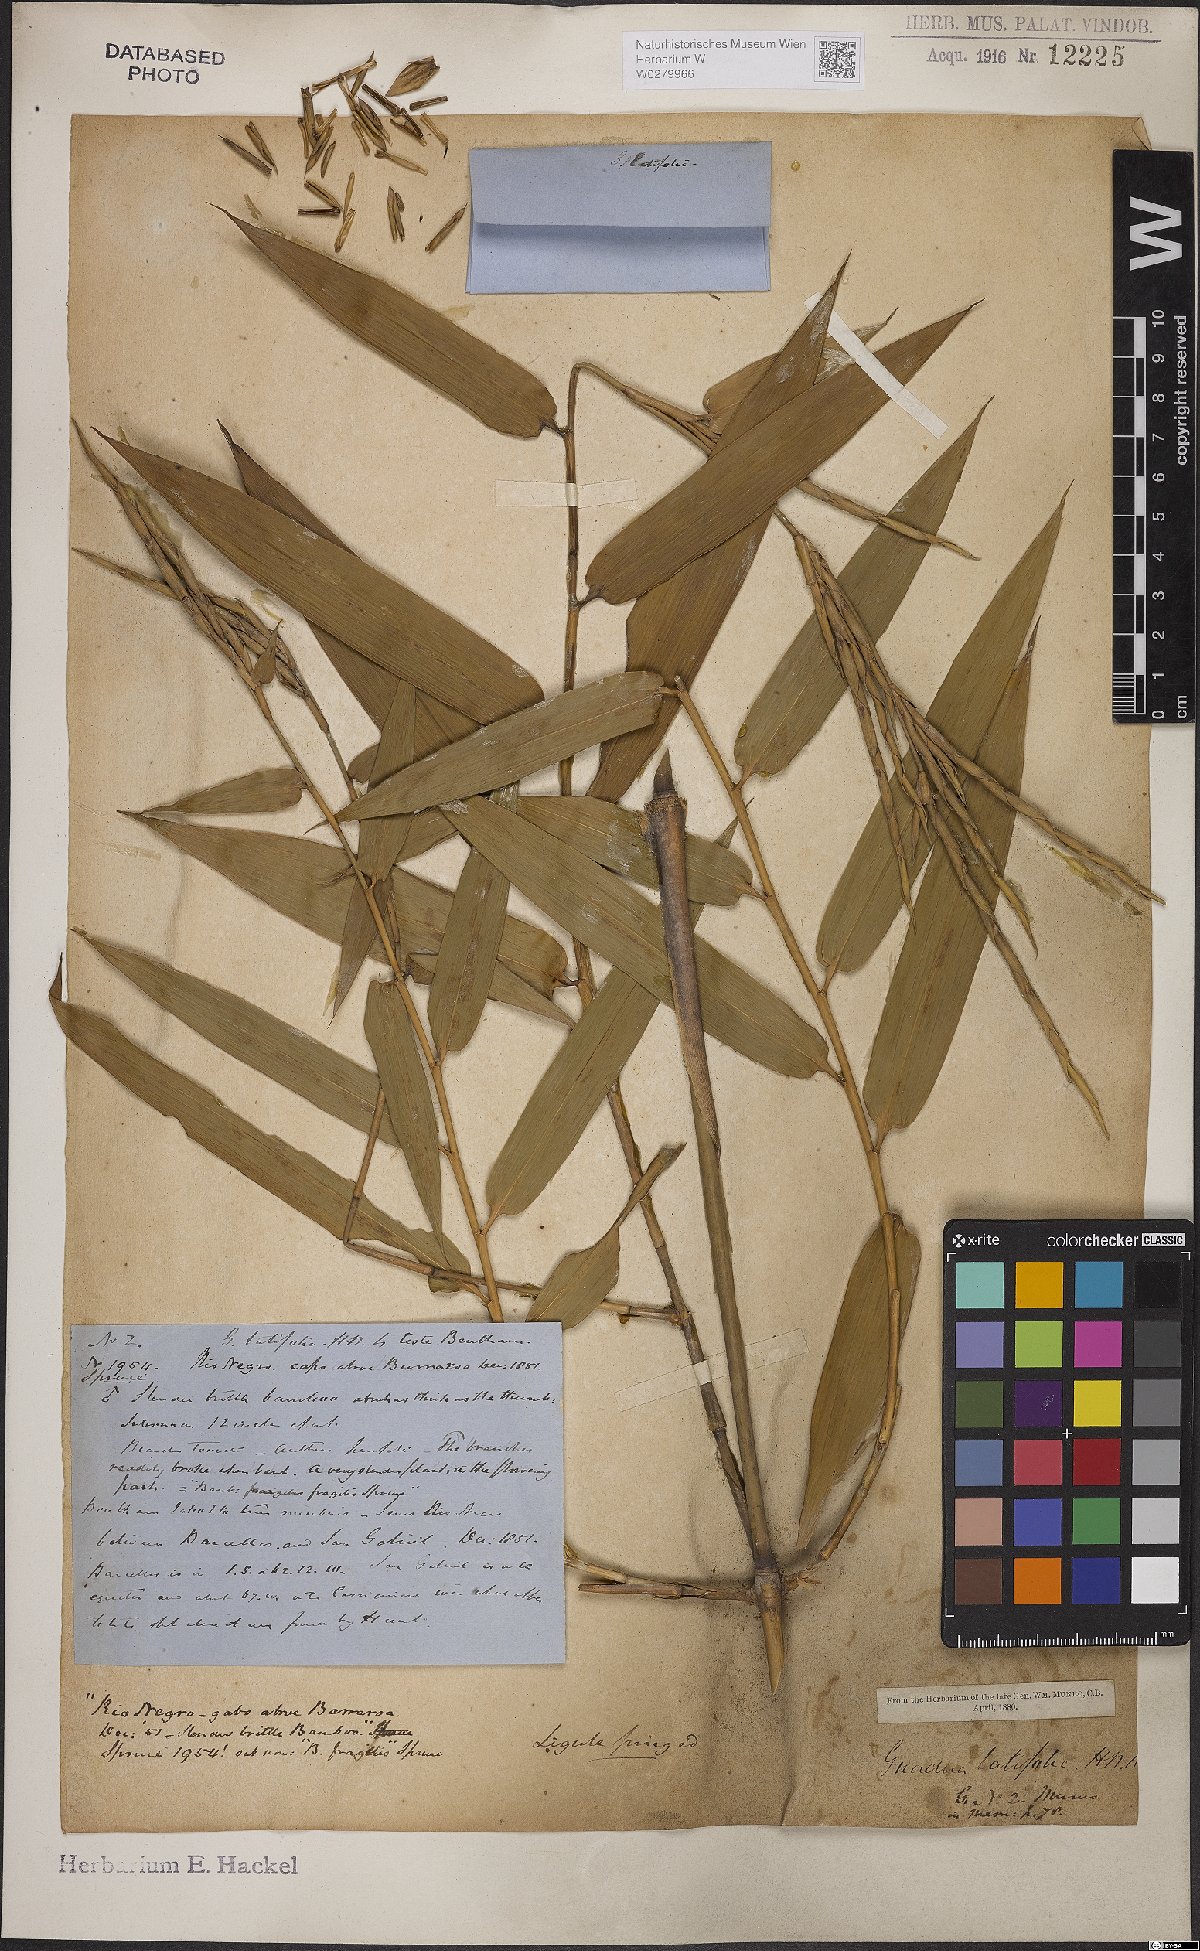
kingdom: Plantae
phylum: Tracheophyta
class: Liliopsida
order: Poales
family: Poaceae
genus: Guadua
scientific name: Guadua latifolia
